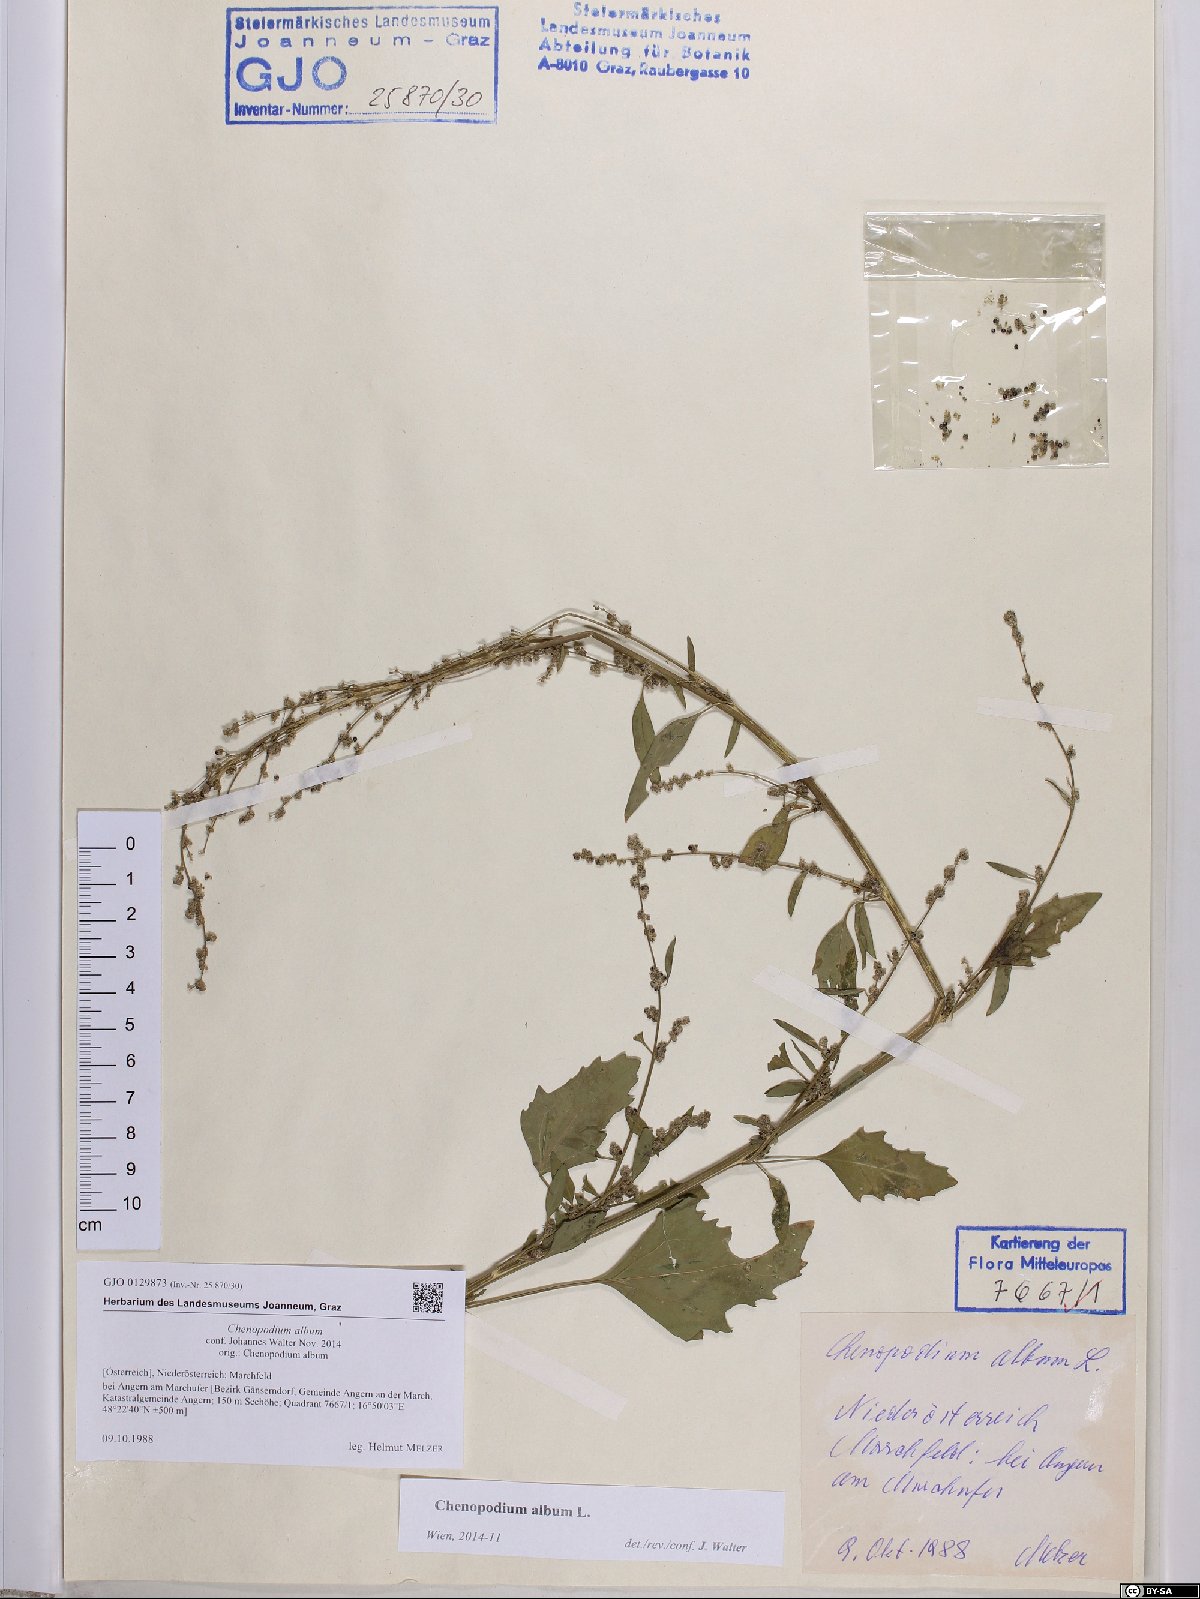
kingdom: Plantae
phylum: Tracheophyta
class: Magnoliopsida
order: Caryophyllales
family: Amaranthaceae
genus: Chenopodium
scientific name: Chenopodium album
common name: Fat-hen
